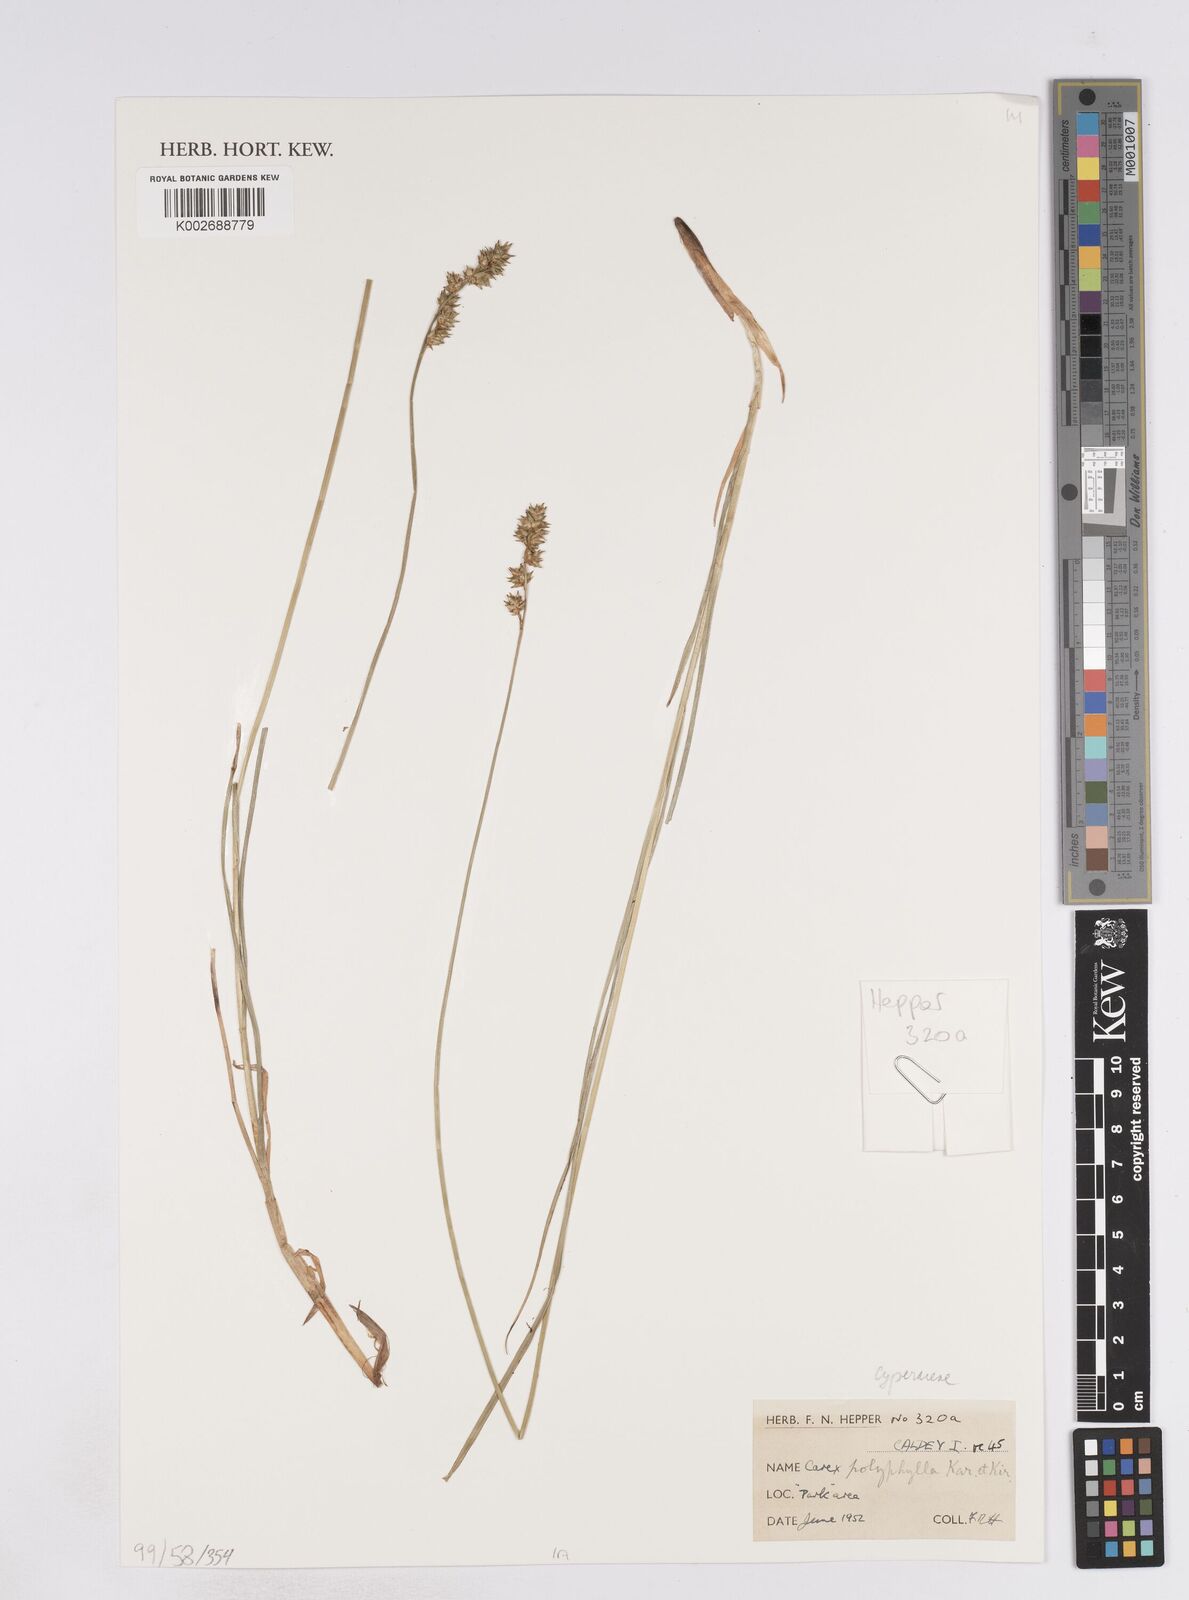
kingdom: Plantae
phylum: Tracheophyta
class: Liliopsida
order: Poales
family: Cyperaceae
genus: Carex
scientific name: Carex buxbaumii
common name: Club sedge
